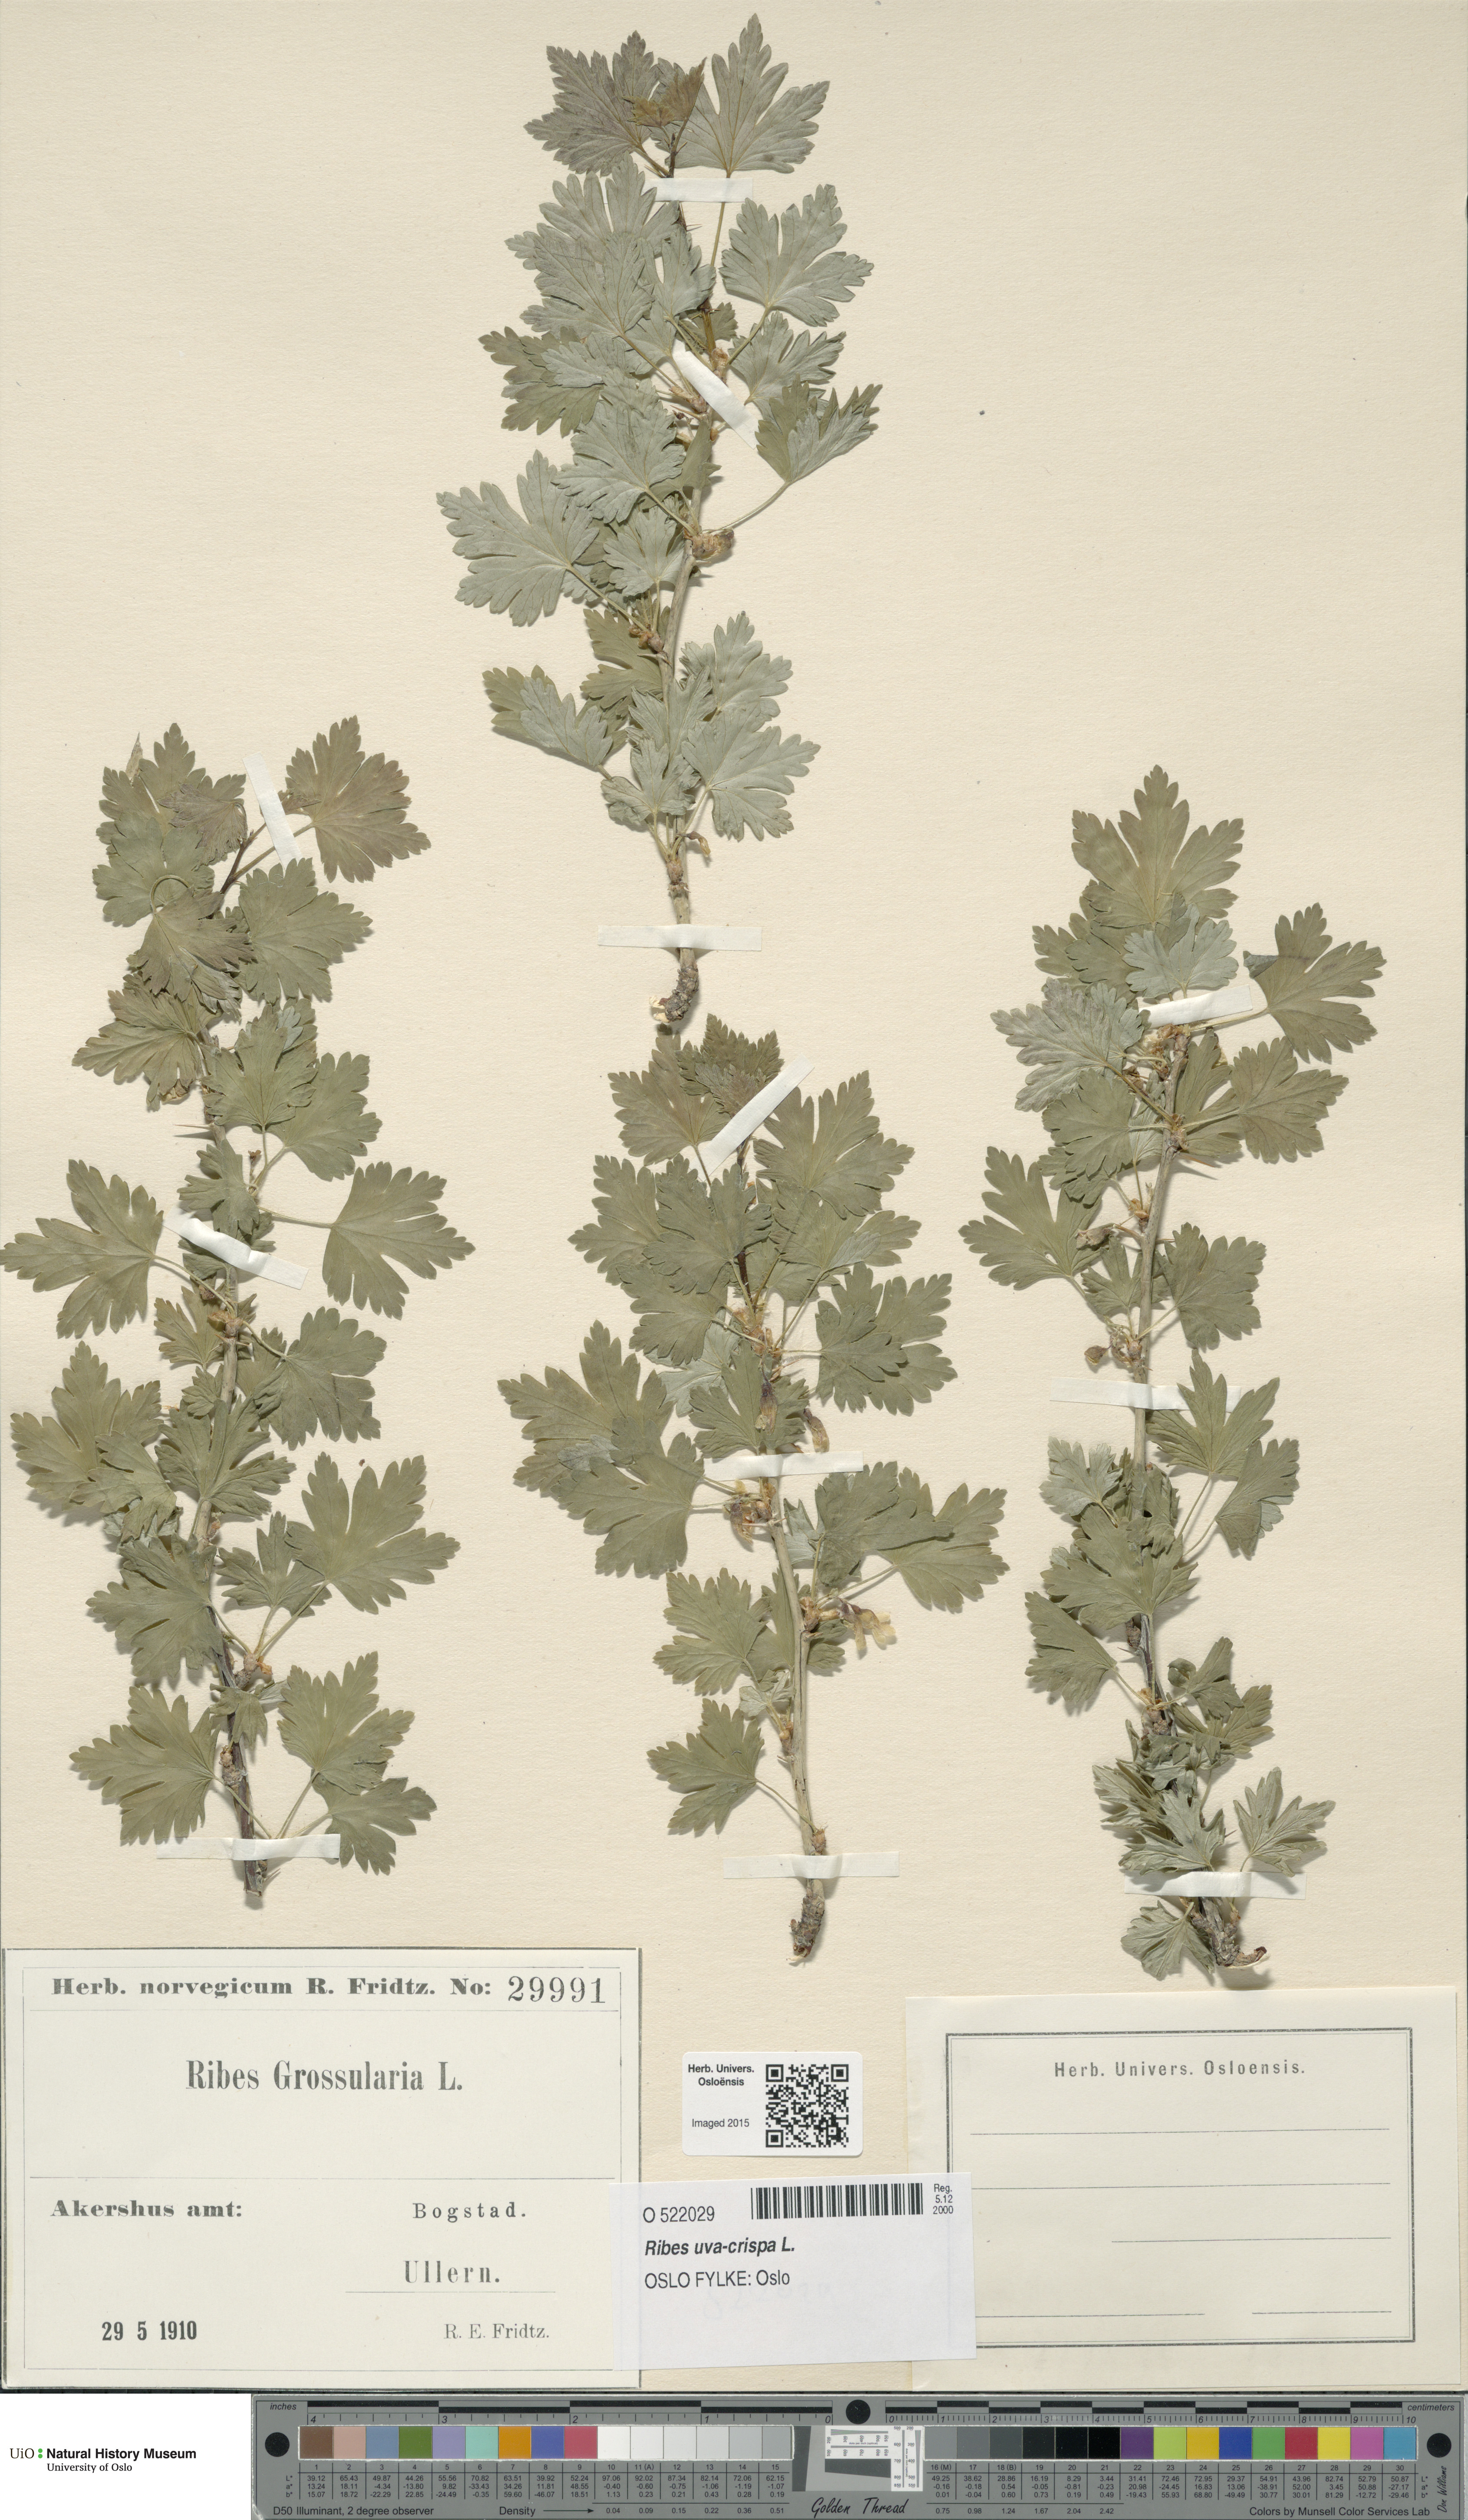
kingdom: Plantae
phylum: Tracheophyta
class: Magnoliopsida
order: Saxifragales
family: Grossulariaceae
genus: Ribes
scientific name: Ribes uva-crispa
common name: Gooseberry
